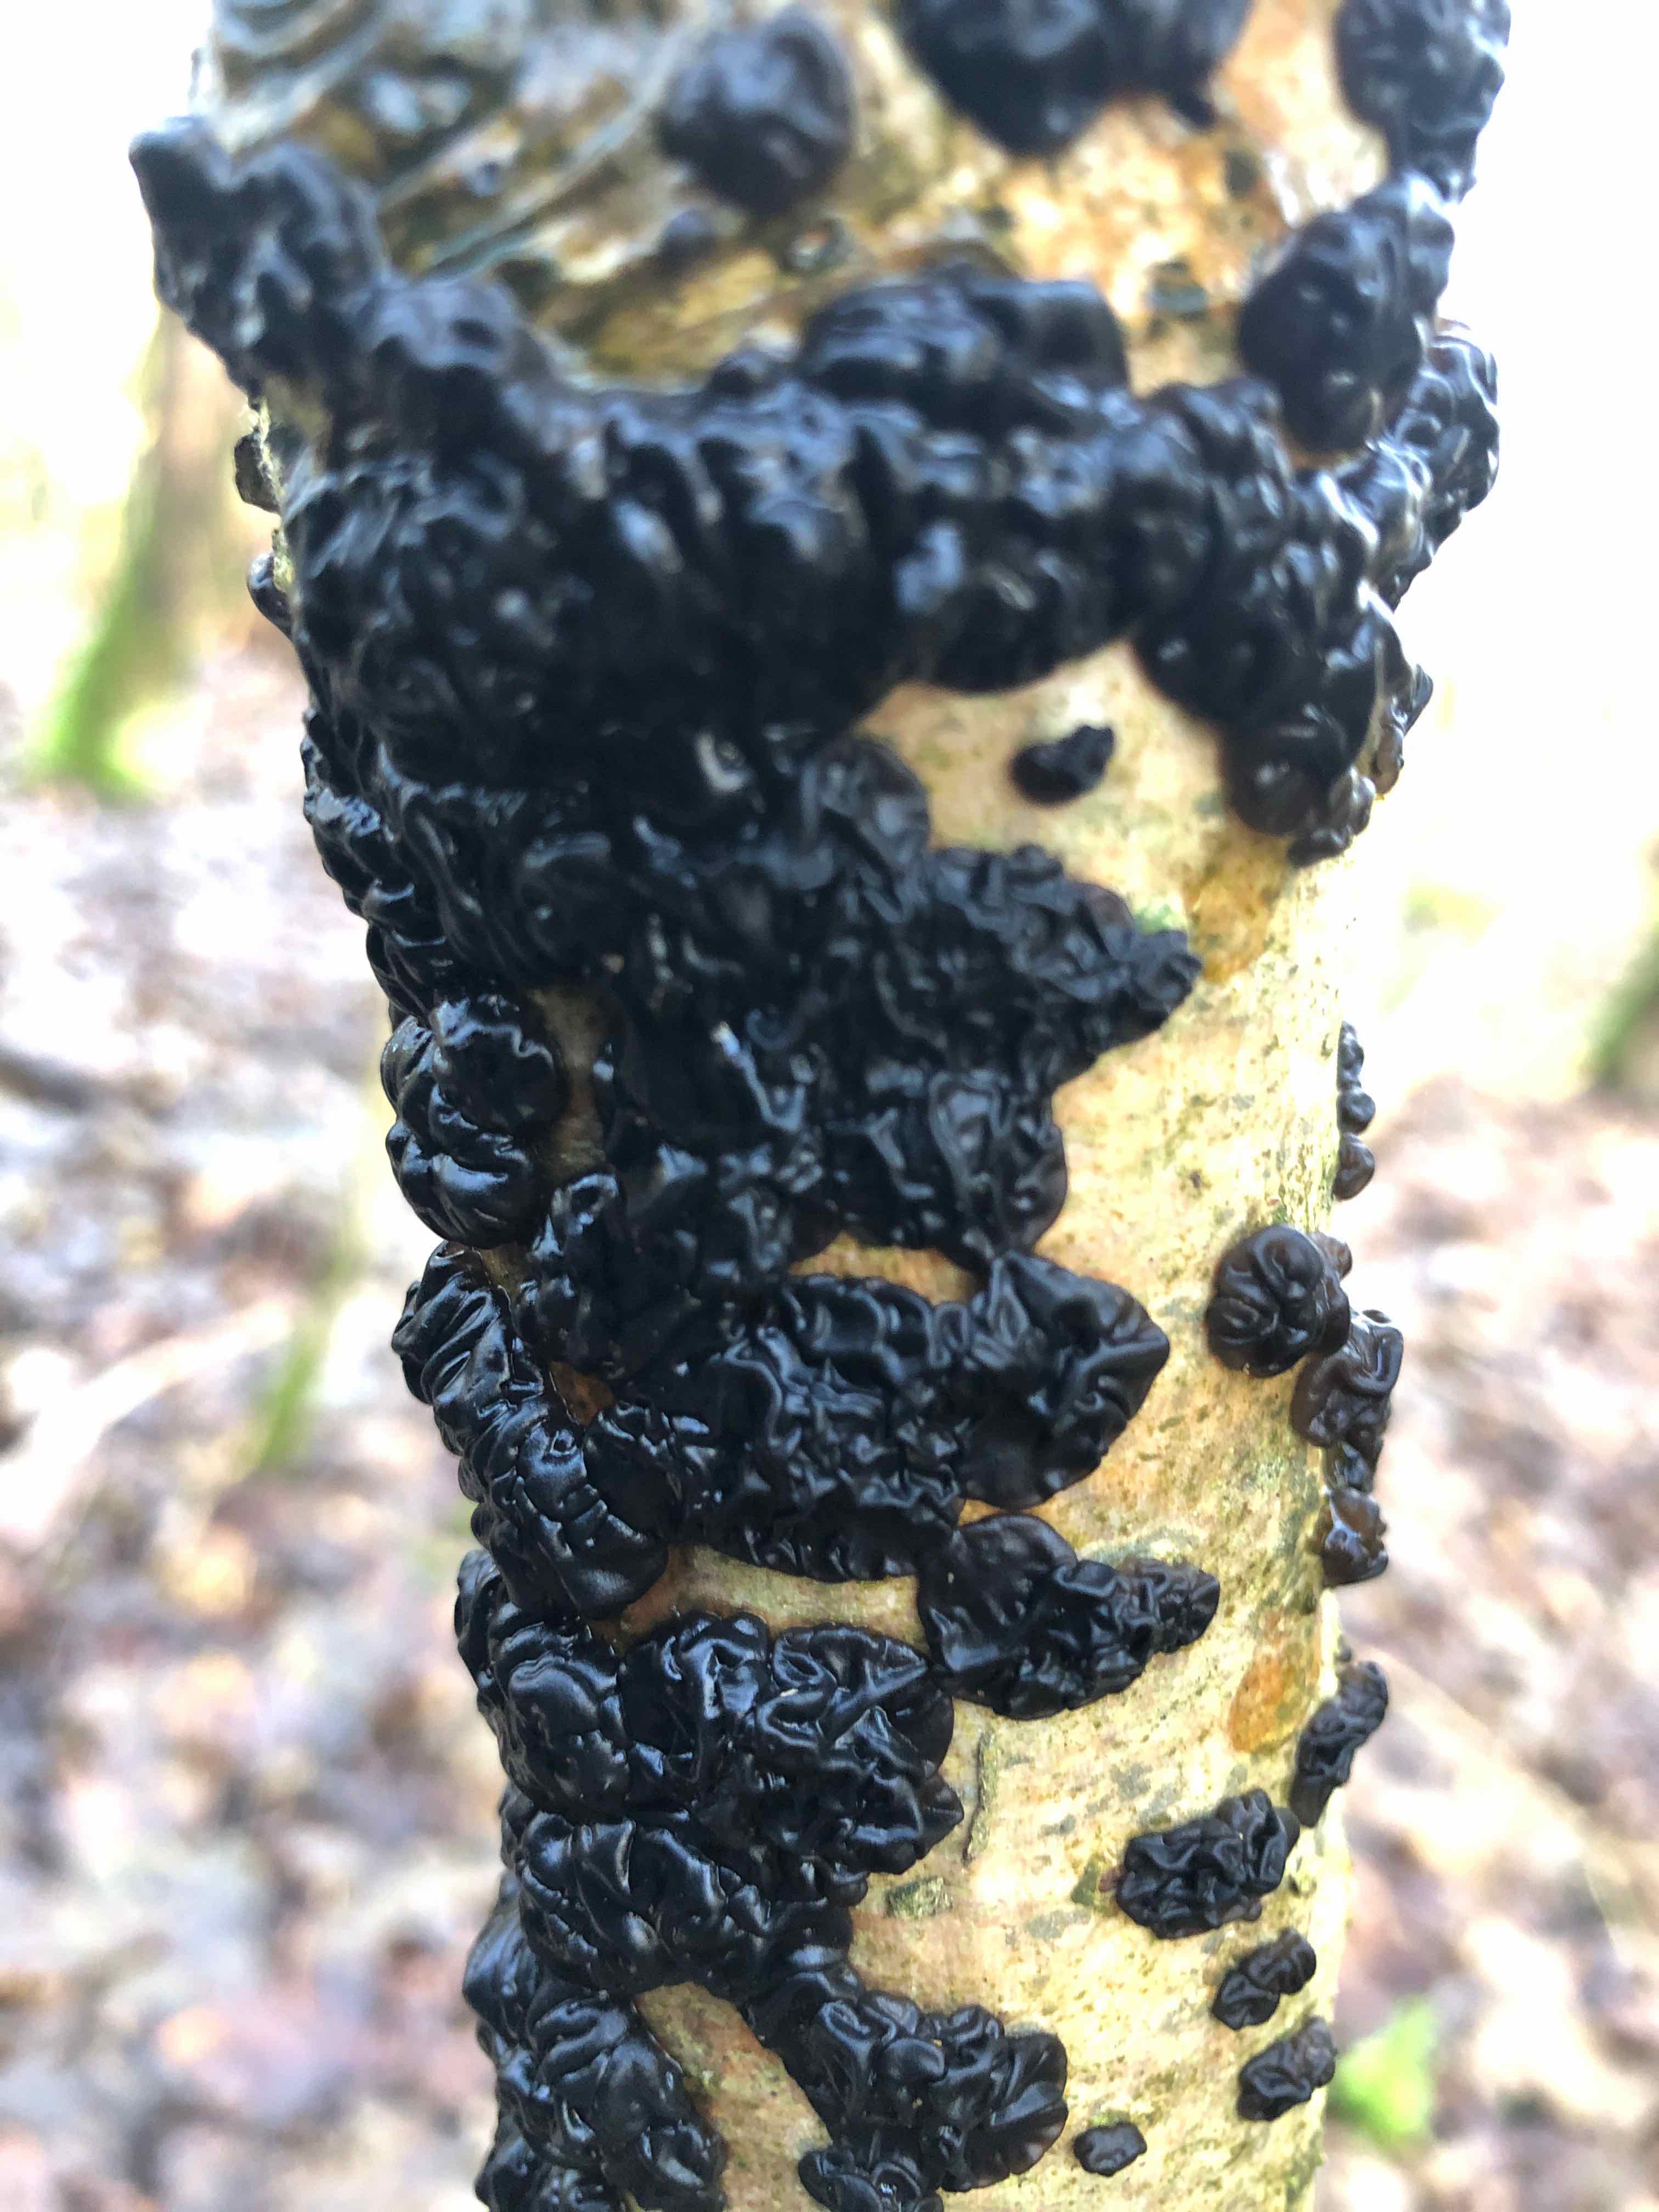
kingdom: Fungi
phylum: Basidiomycota
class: Agaricomycetes
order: Auriculariales
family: Auriculariaceae
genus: Exidia
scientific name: Exidia nigricans
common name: almindelig bævretop
